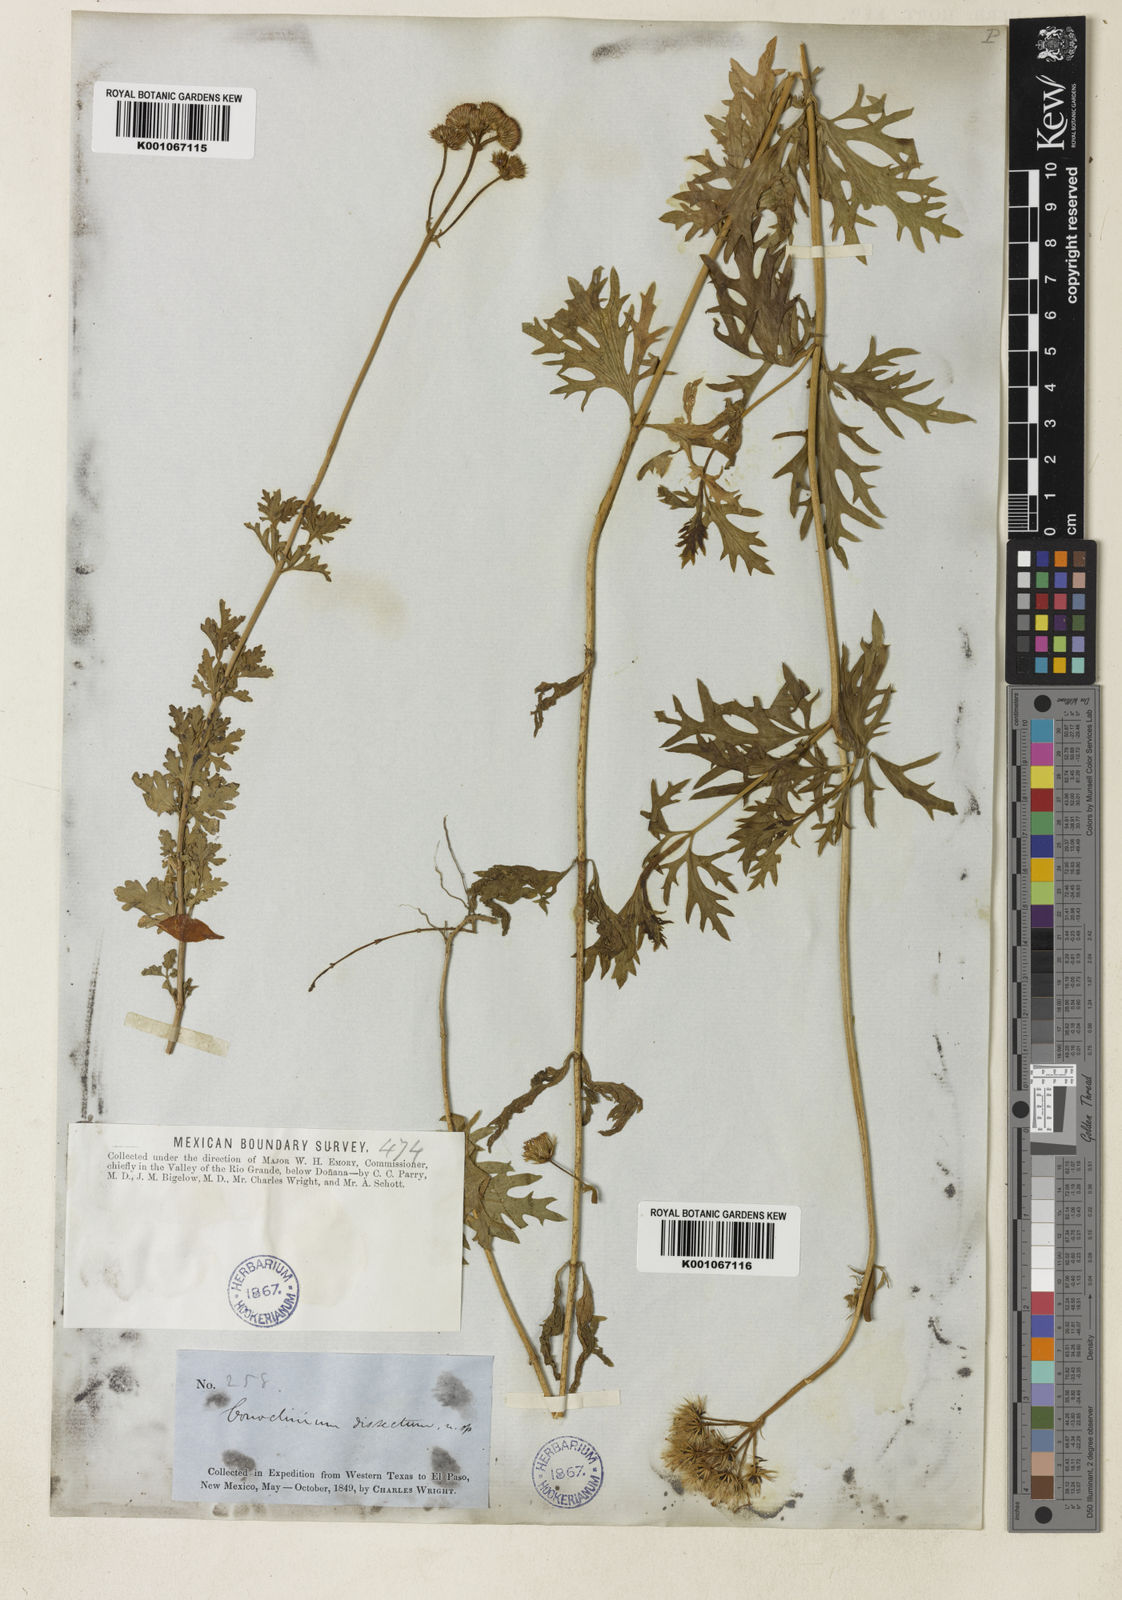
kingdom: Plantae
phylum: Tracheophyta
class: Magnoliopsida
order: Asterales
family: Asteraceae
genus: Conoclinium
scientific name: Conoclinium dissectum
